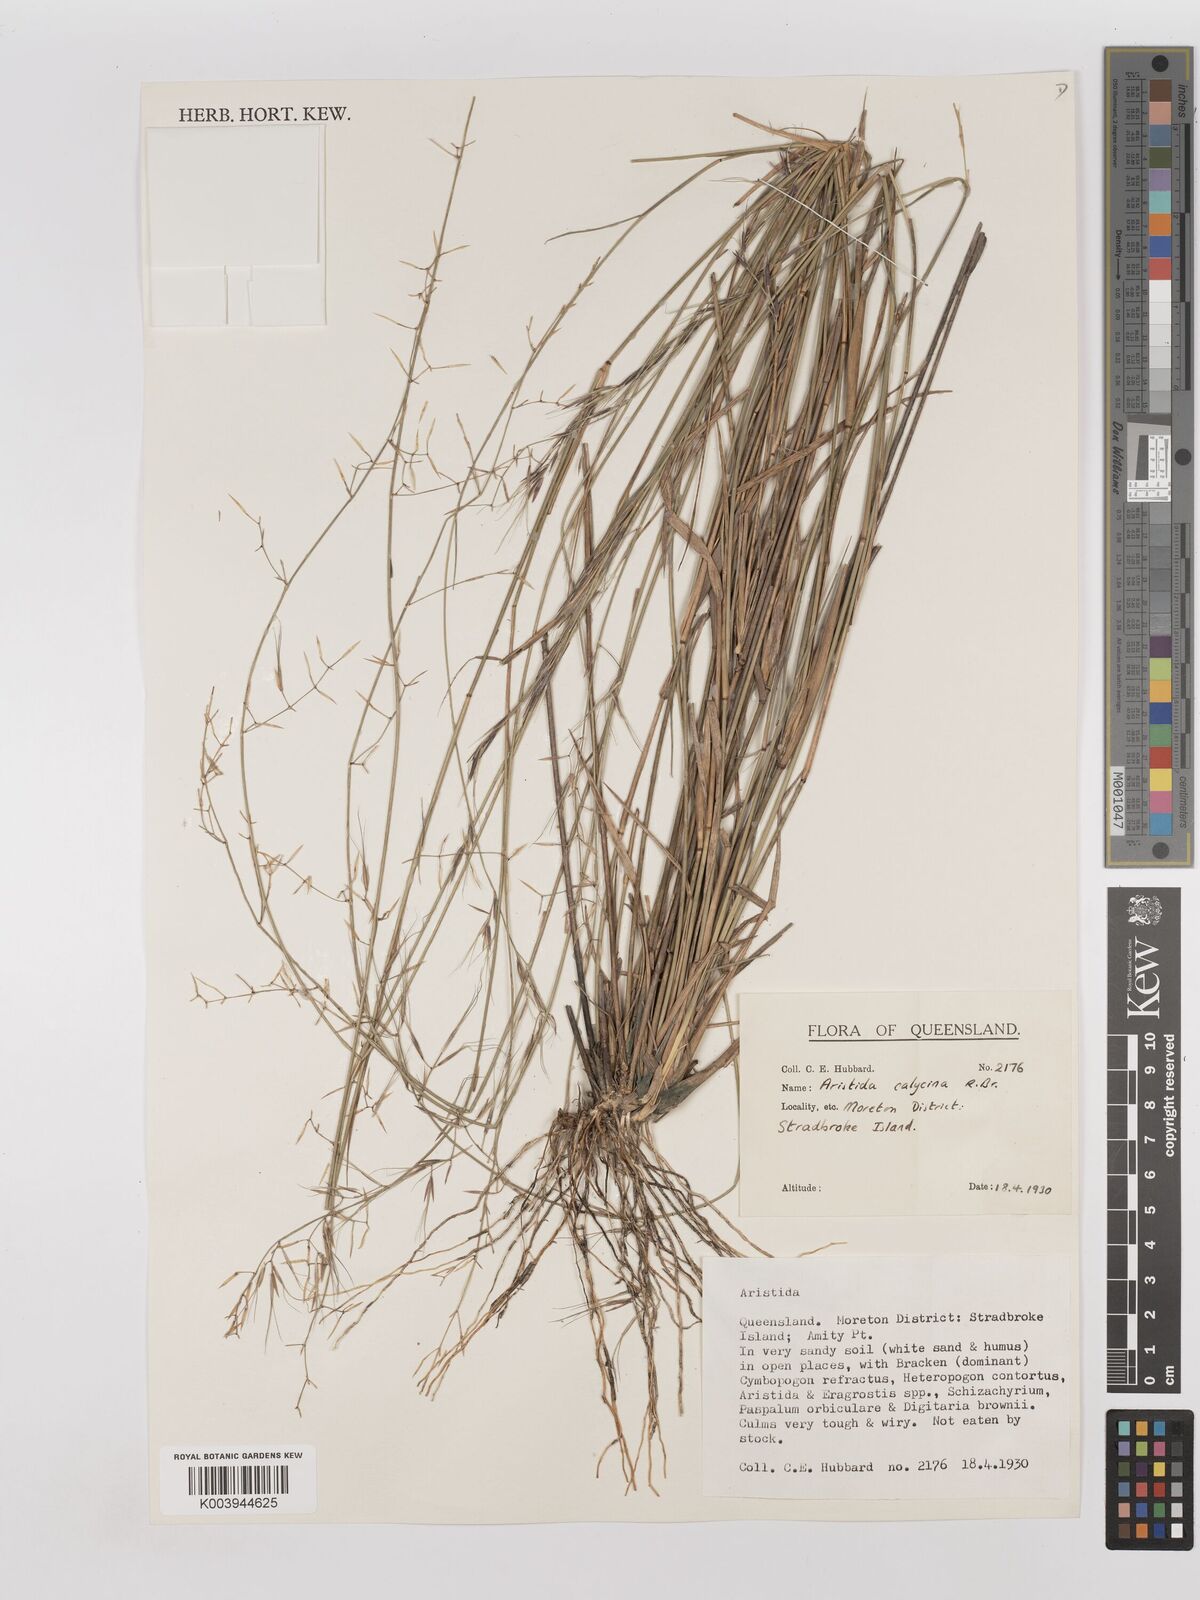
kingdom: Plantae
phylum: Tracheophyta
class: Liliopsida
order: Poales
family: Poaceae
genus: Aristida
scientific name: Aristida calycina
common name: Dark wire grass
